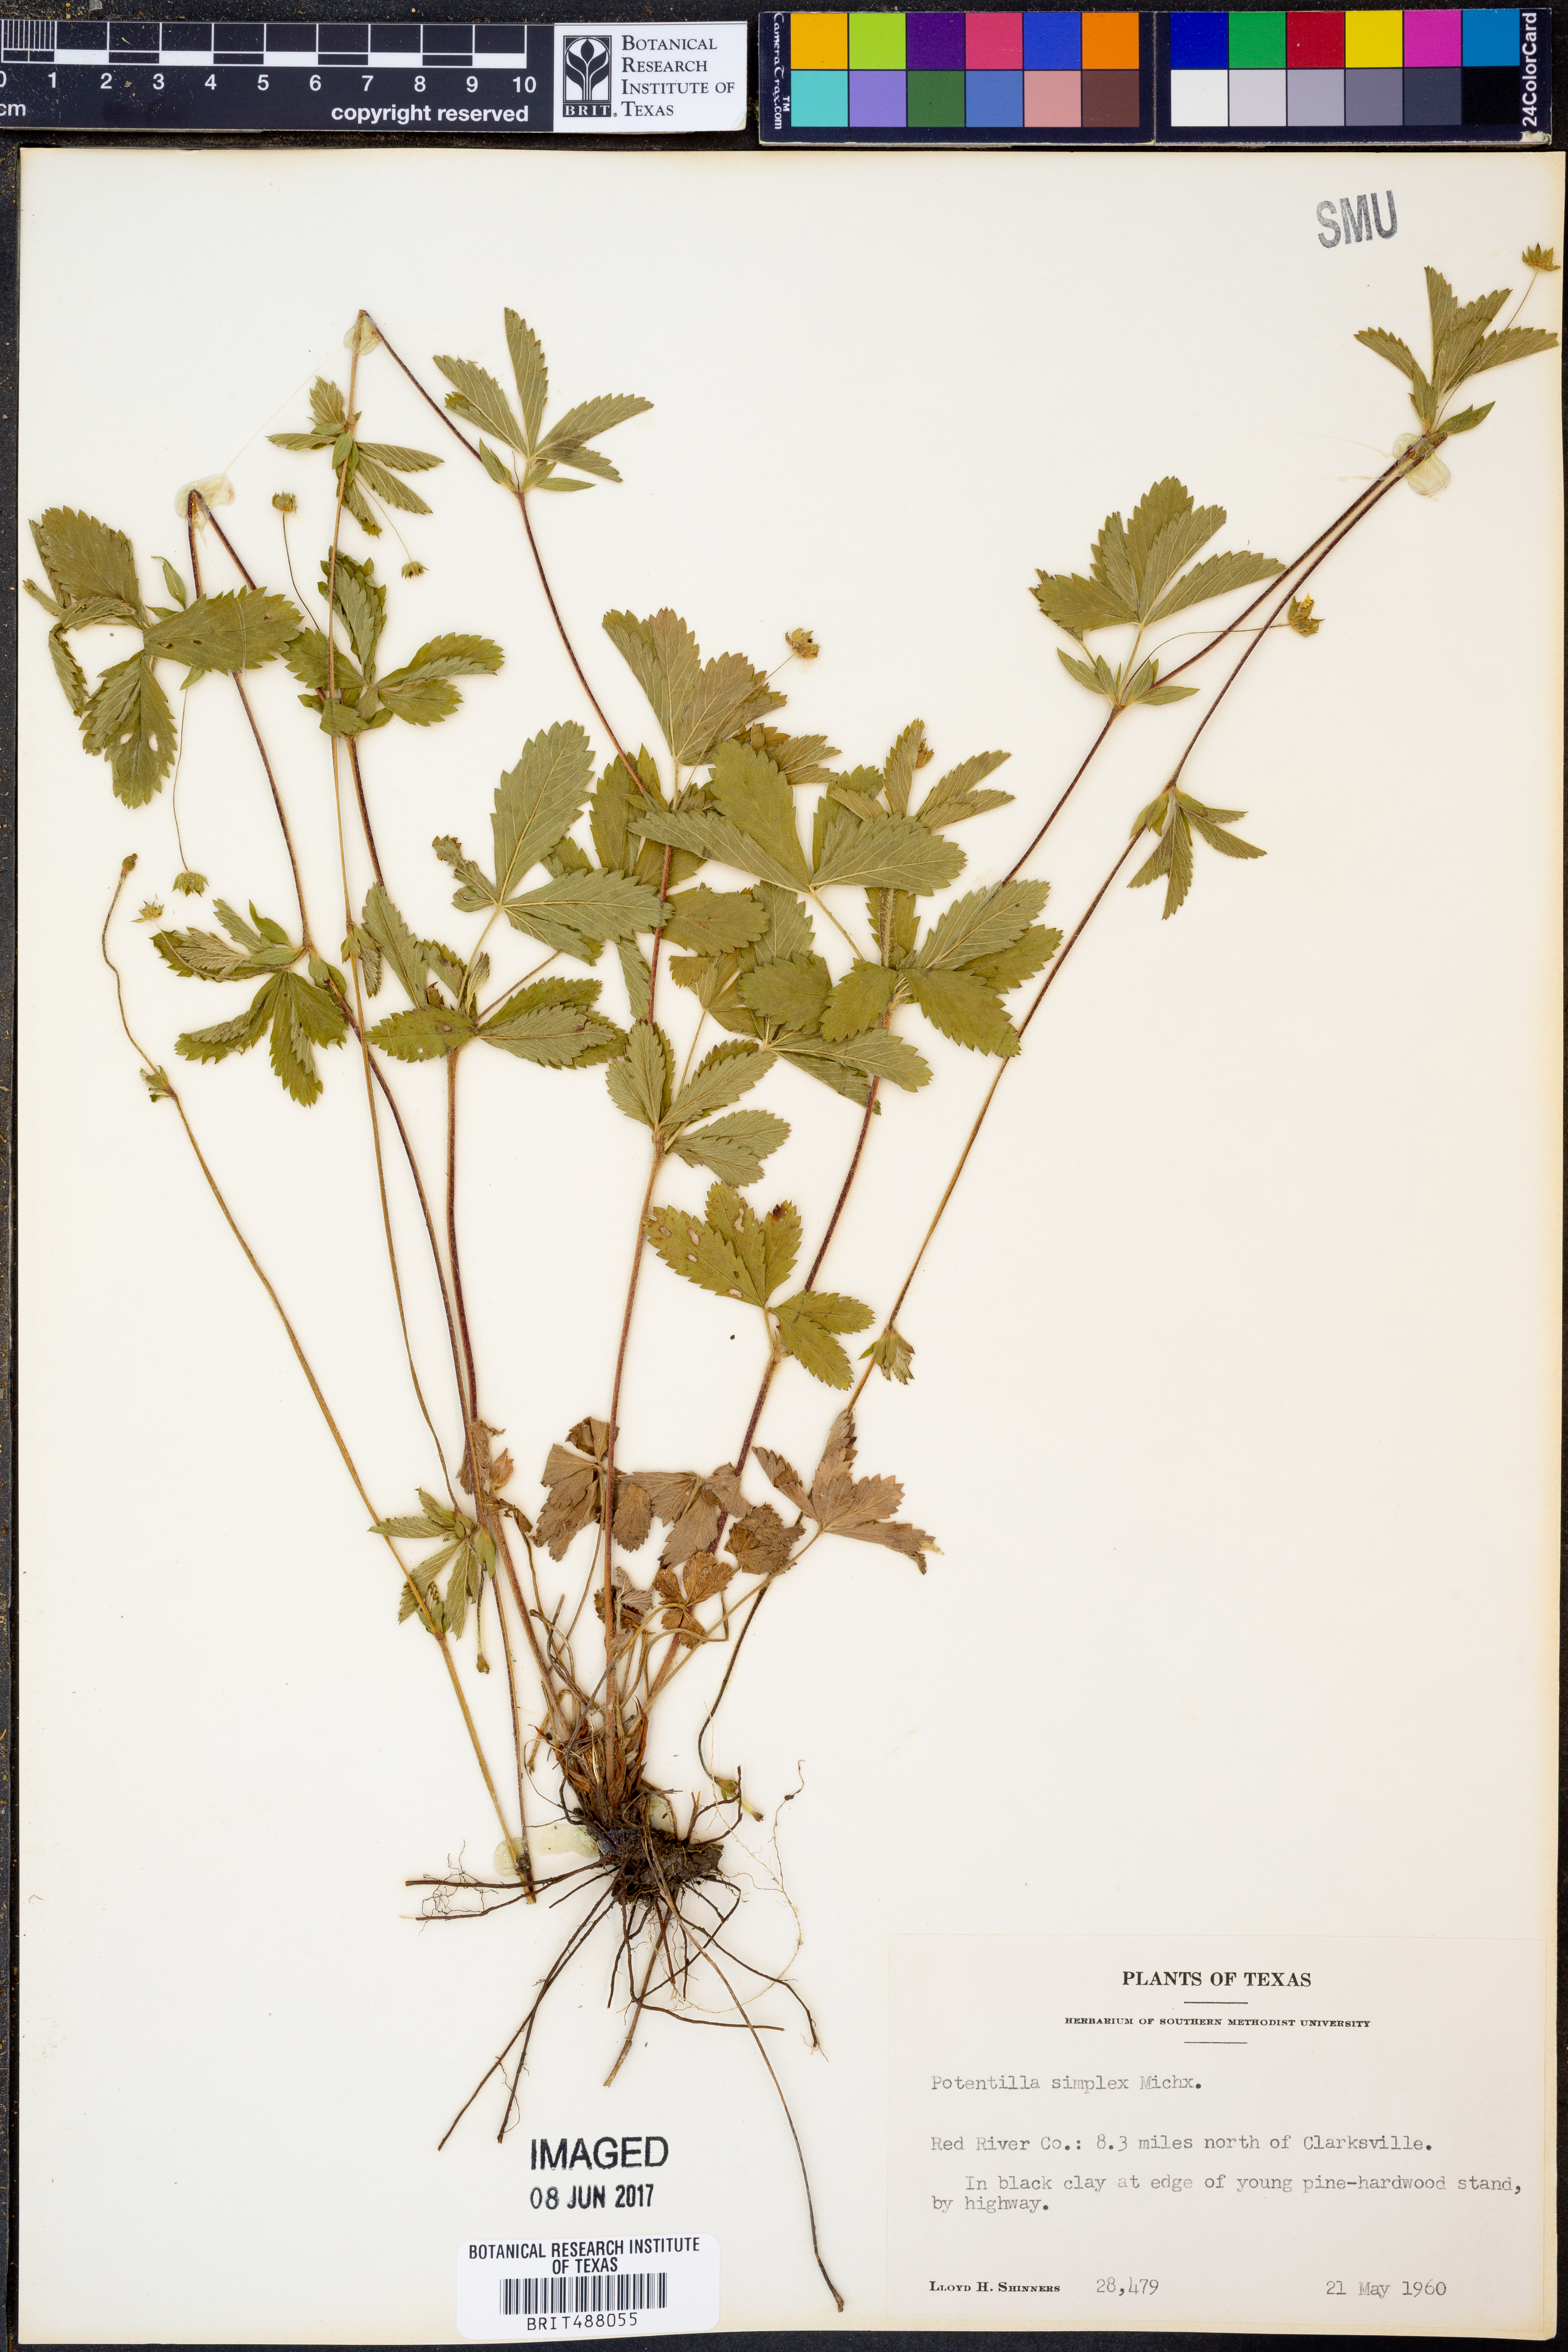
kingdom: Plantae
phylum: Tracheophyta
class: Magnoliopsida
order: Rosales
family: Rosaceae
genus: Potentilla
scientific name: Potentilla simplex
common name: Old field cinquefoil
